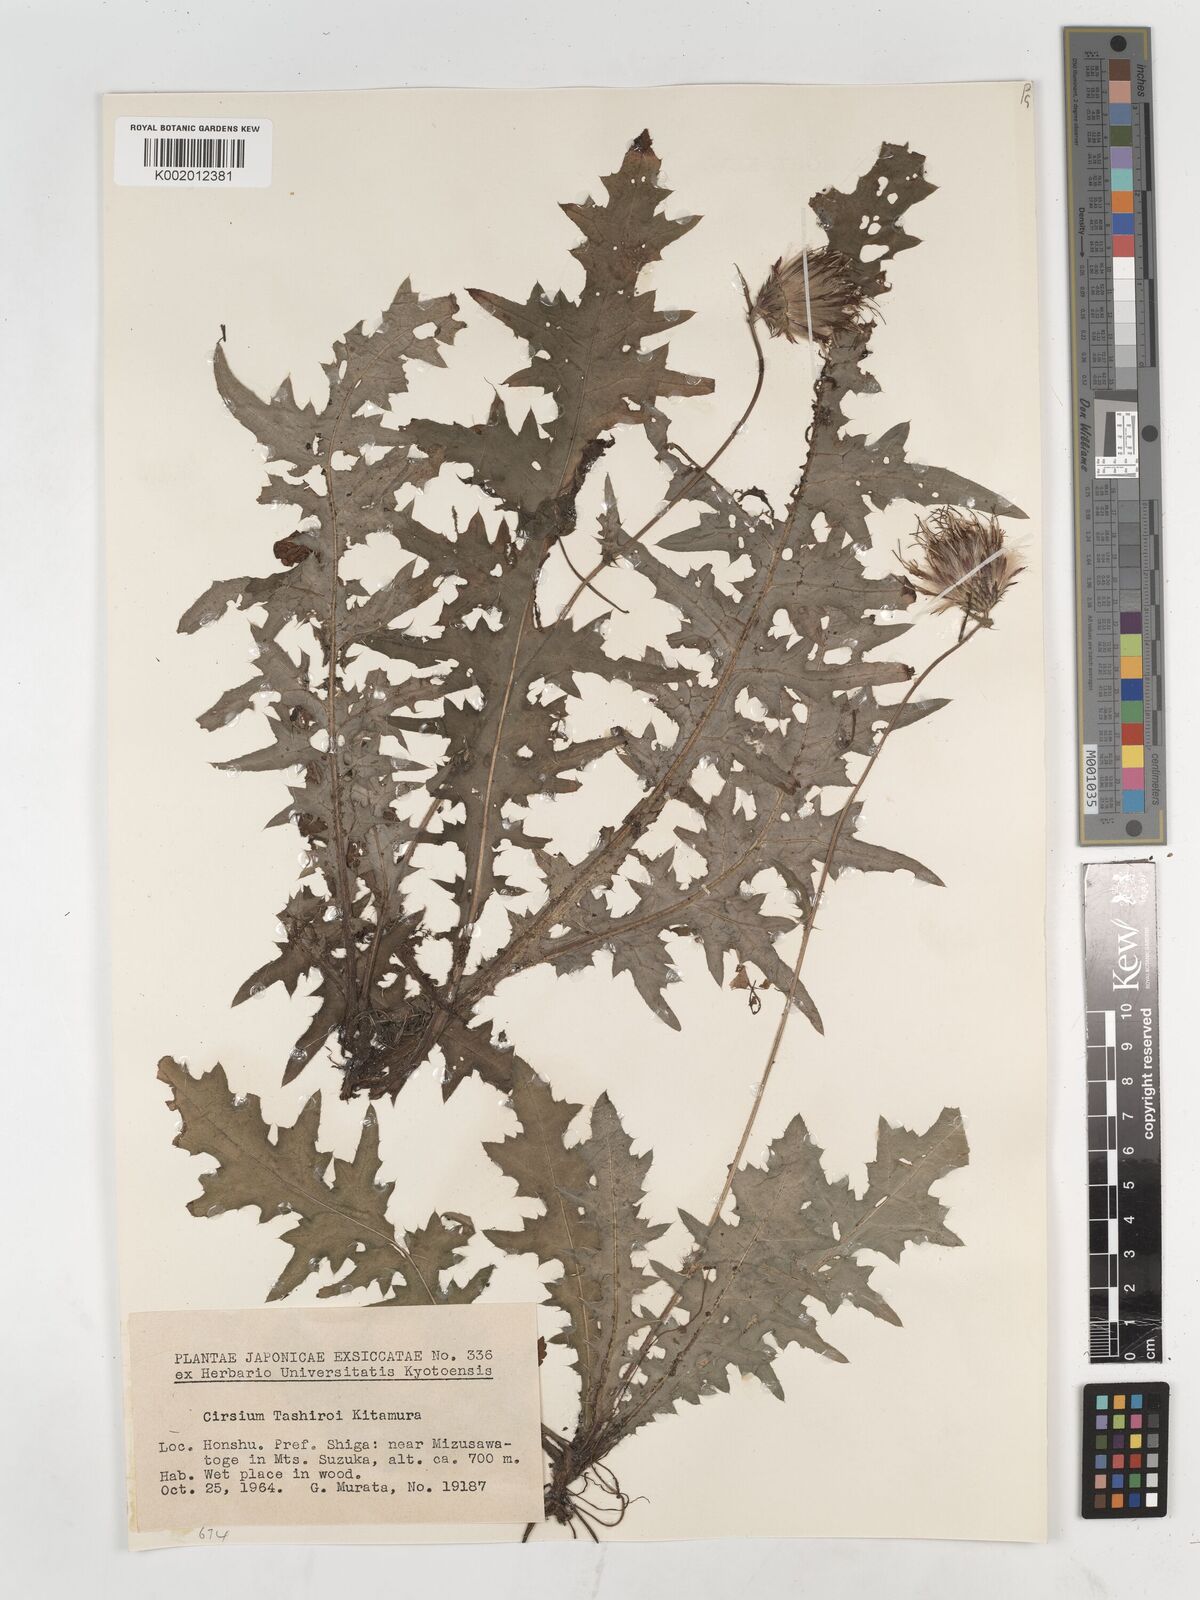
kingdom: Plantae
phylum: Tracheophyta
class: Magnoliopsida
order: Asterales
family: Asteraceae
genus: Cirsium
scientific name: Cirsium tashiroi
